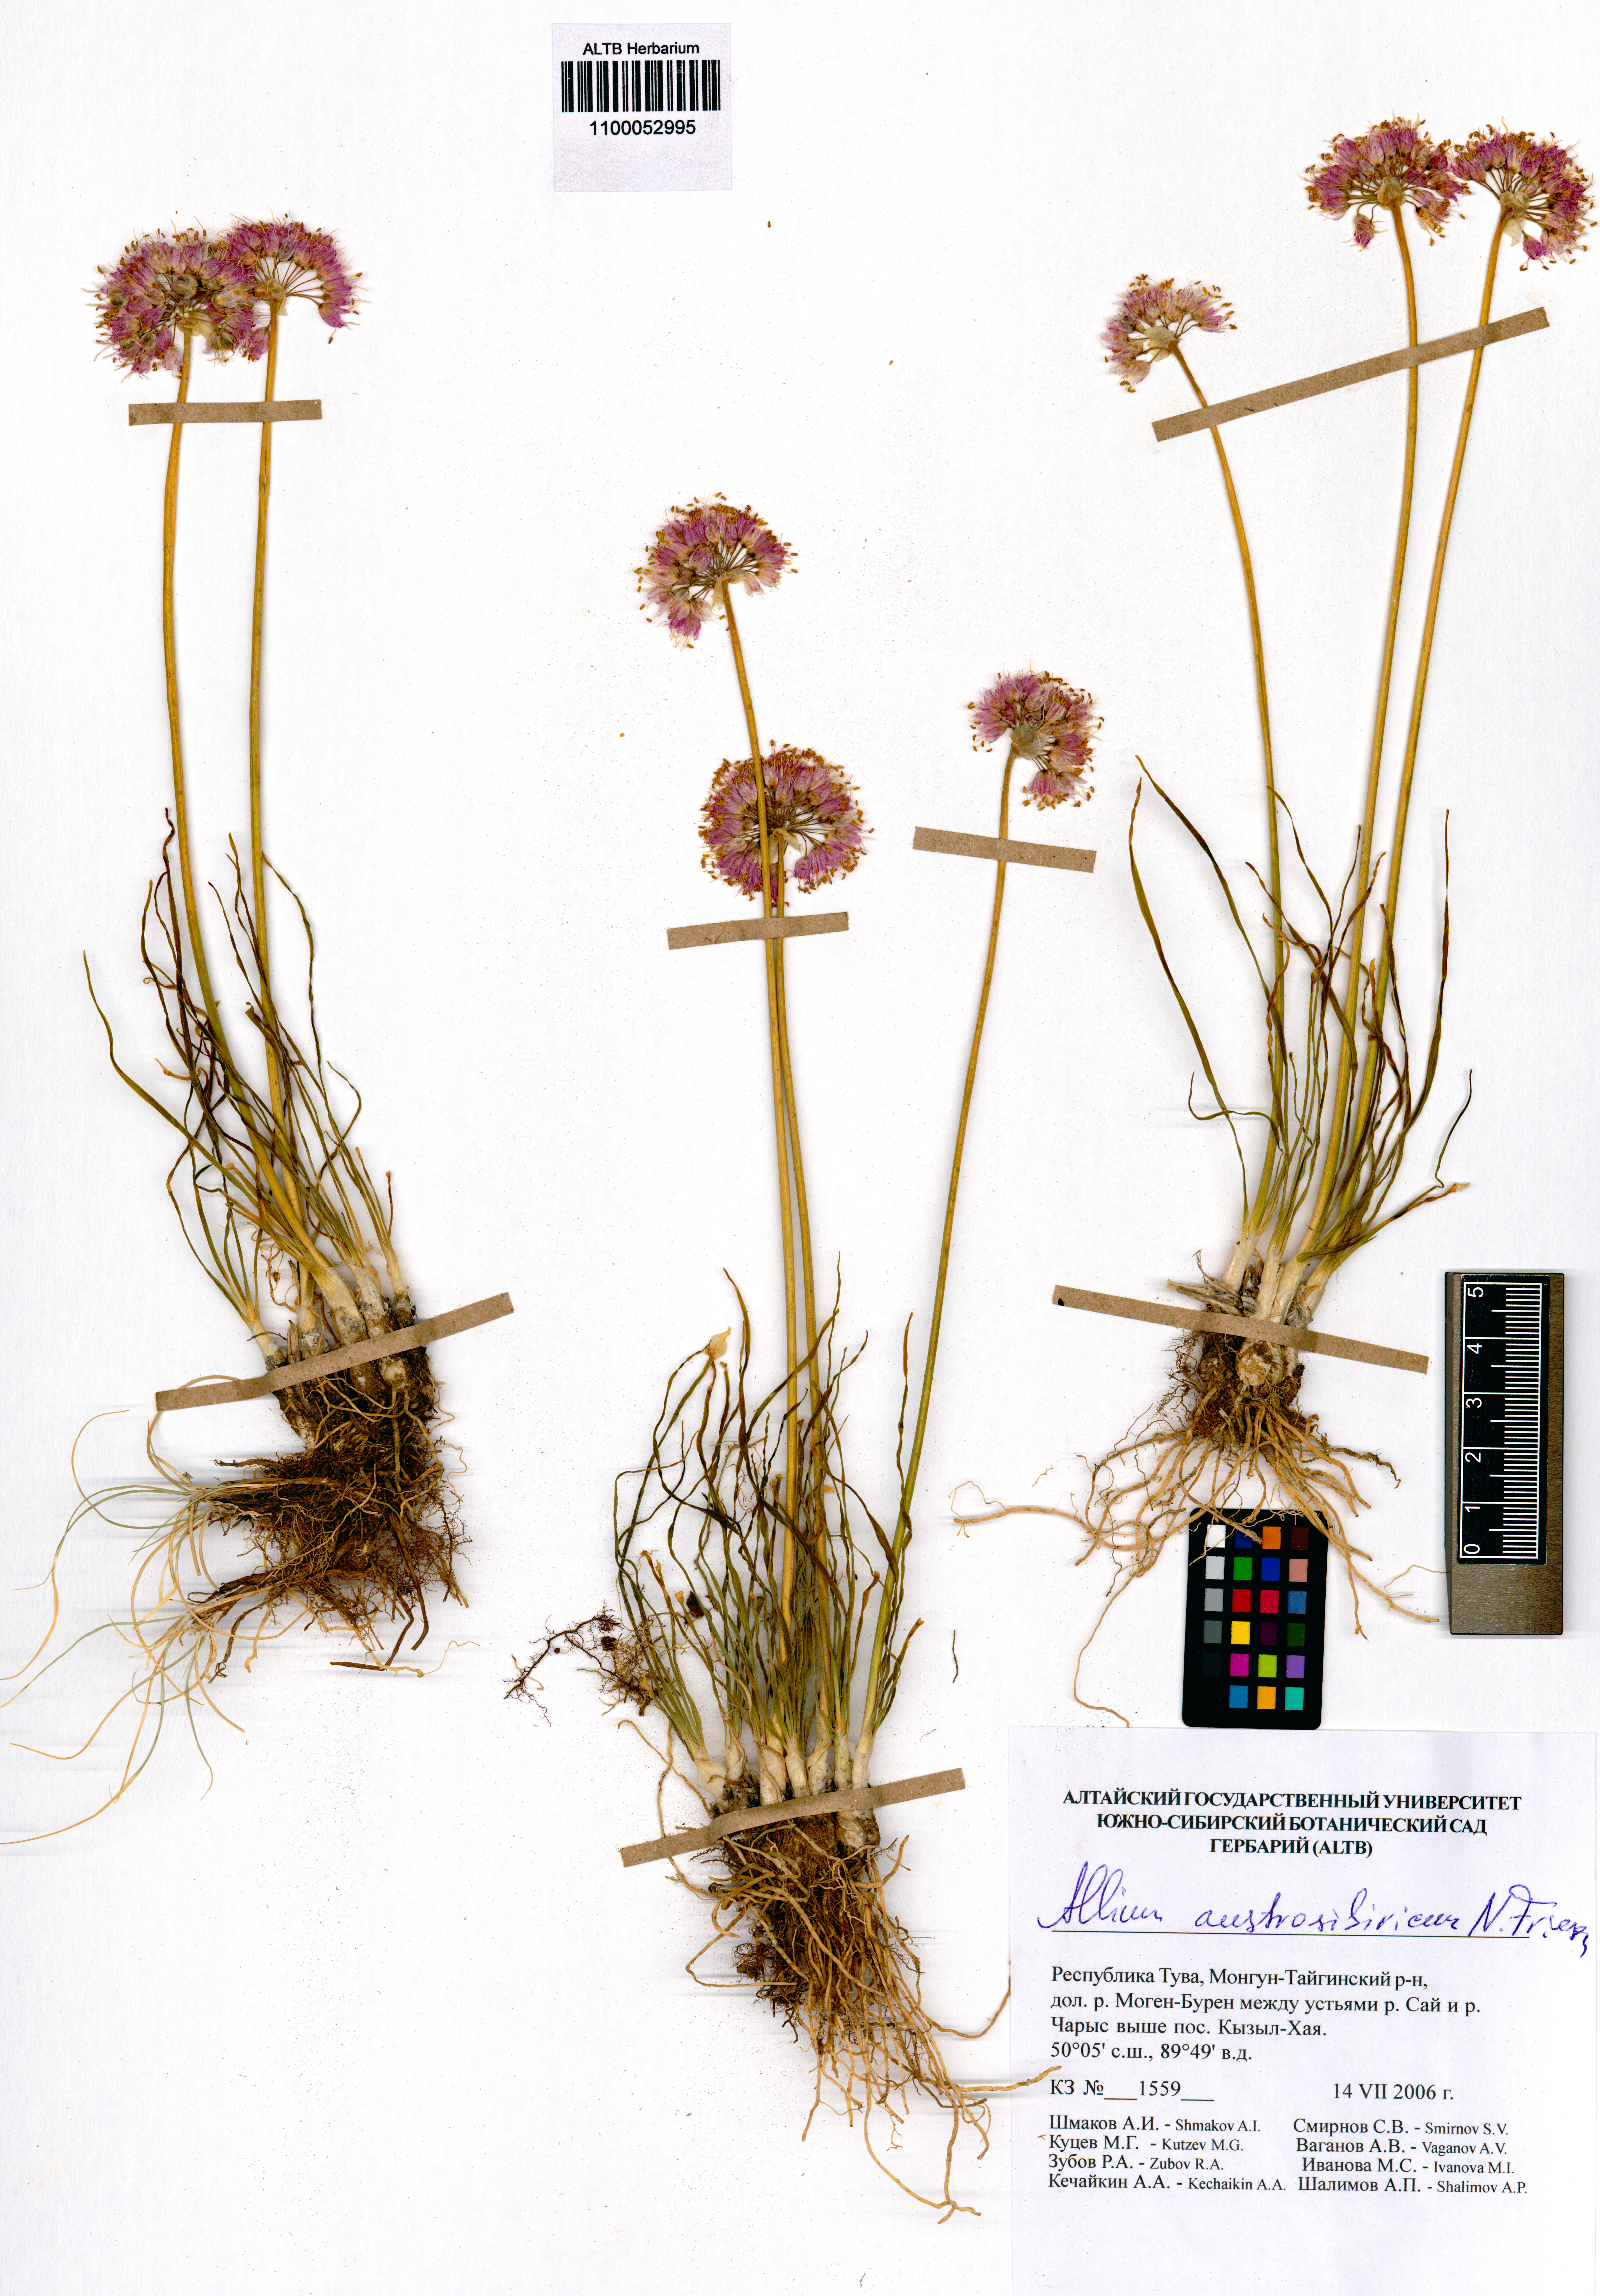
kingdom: Plantae
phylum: Tracheophyta
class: Liliopsida
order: Asparagales
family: Amaryllidaceae
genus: Allium
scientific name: Allium austrosibiricum
